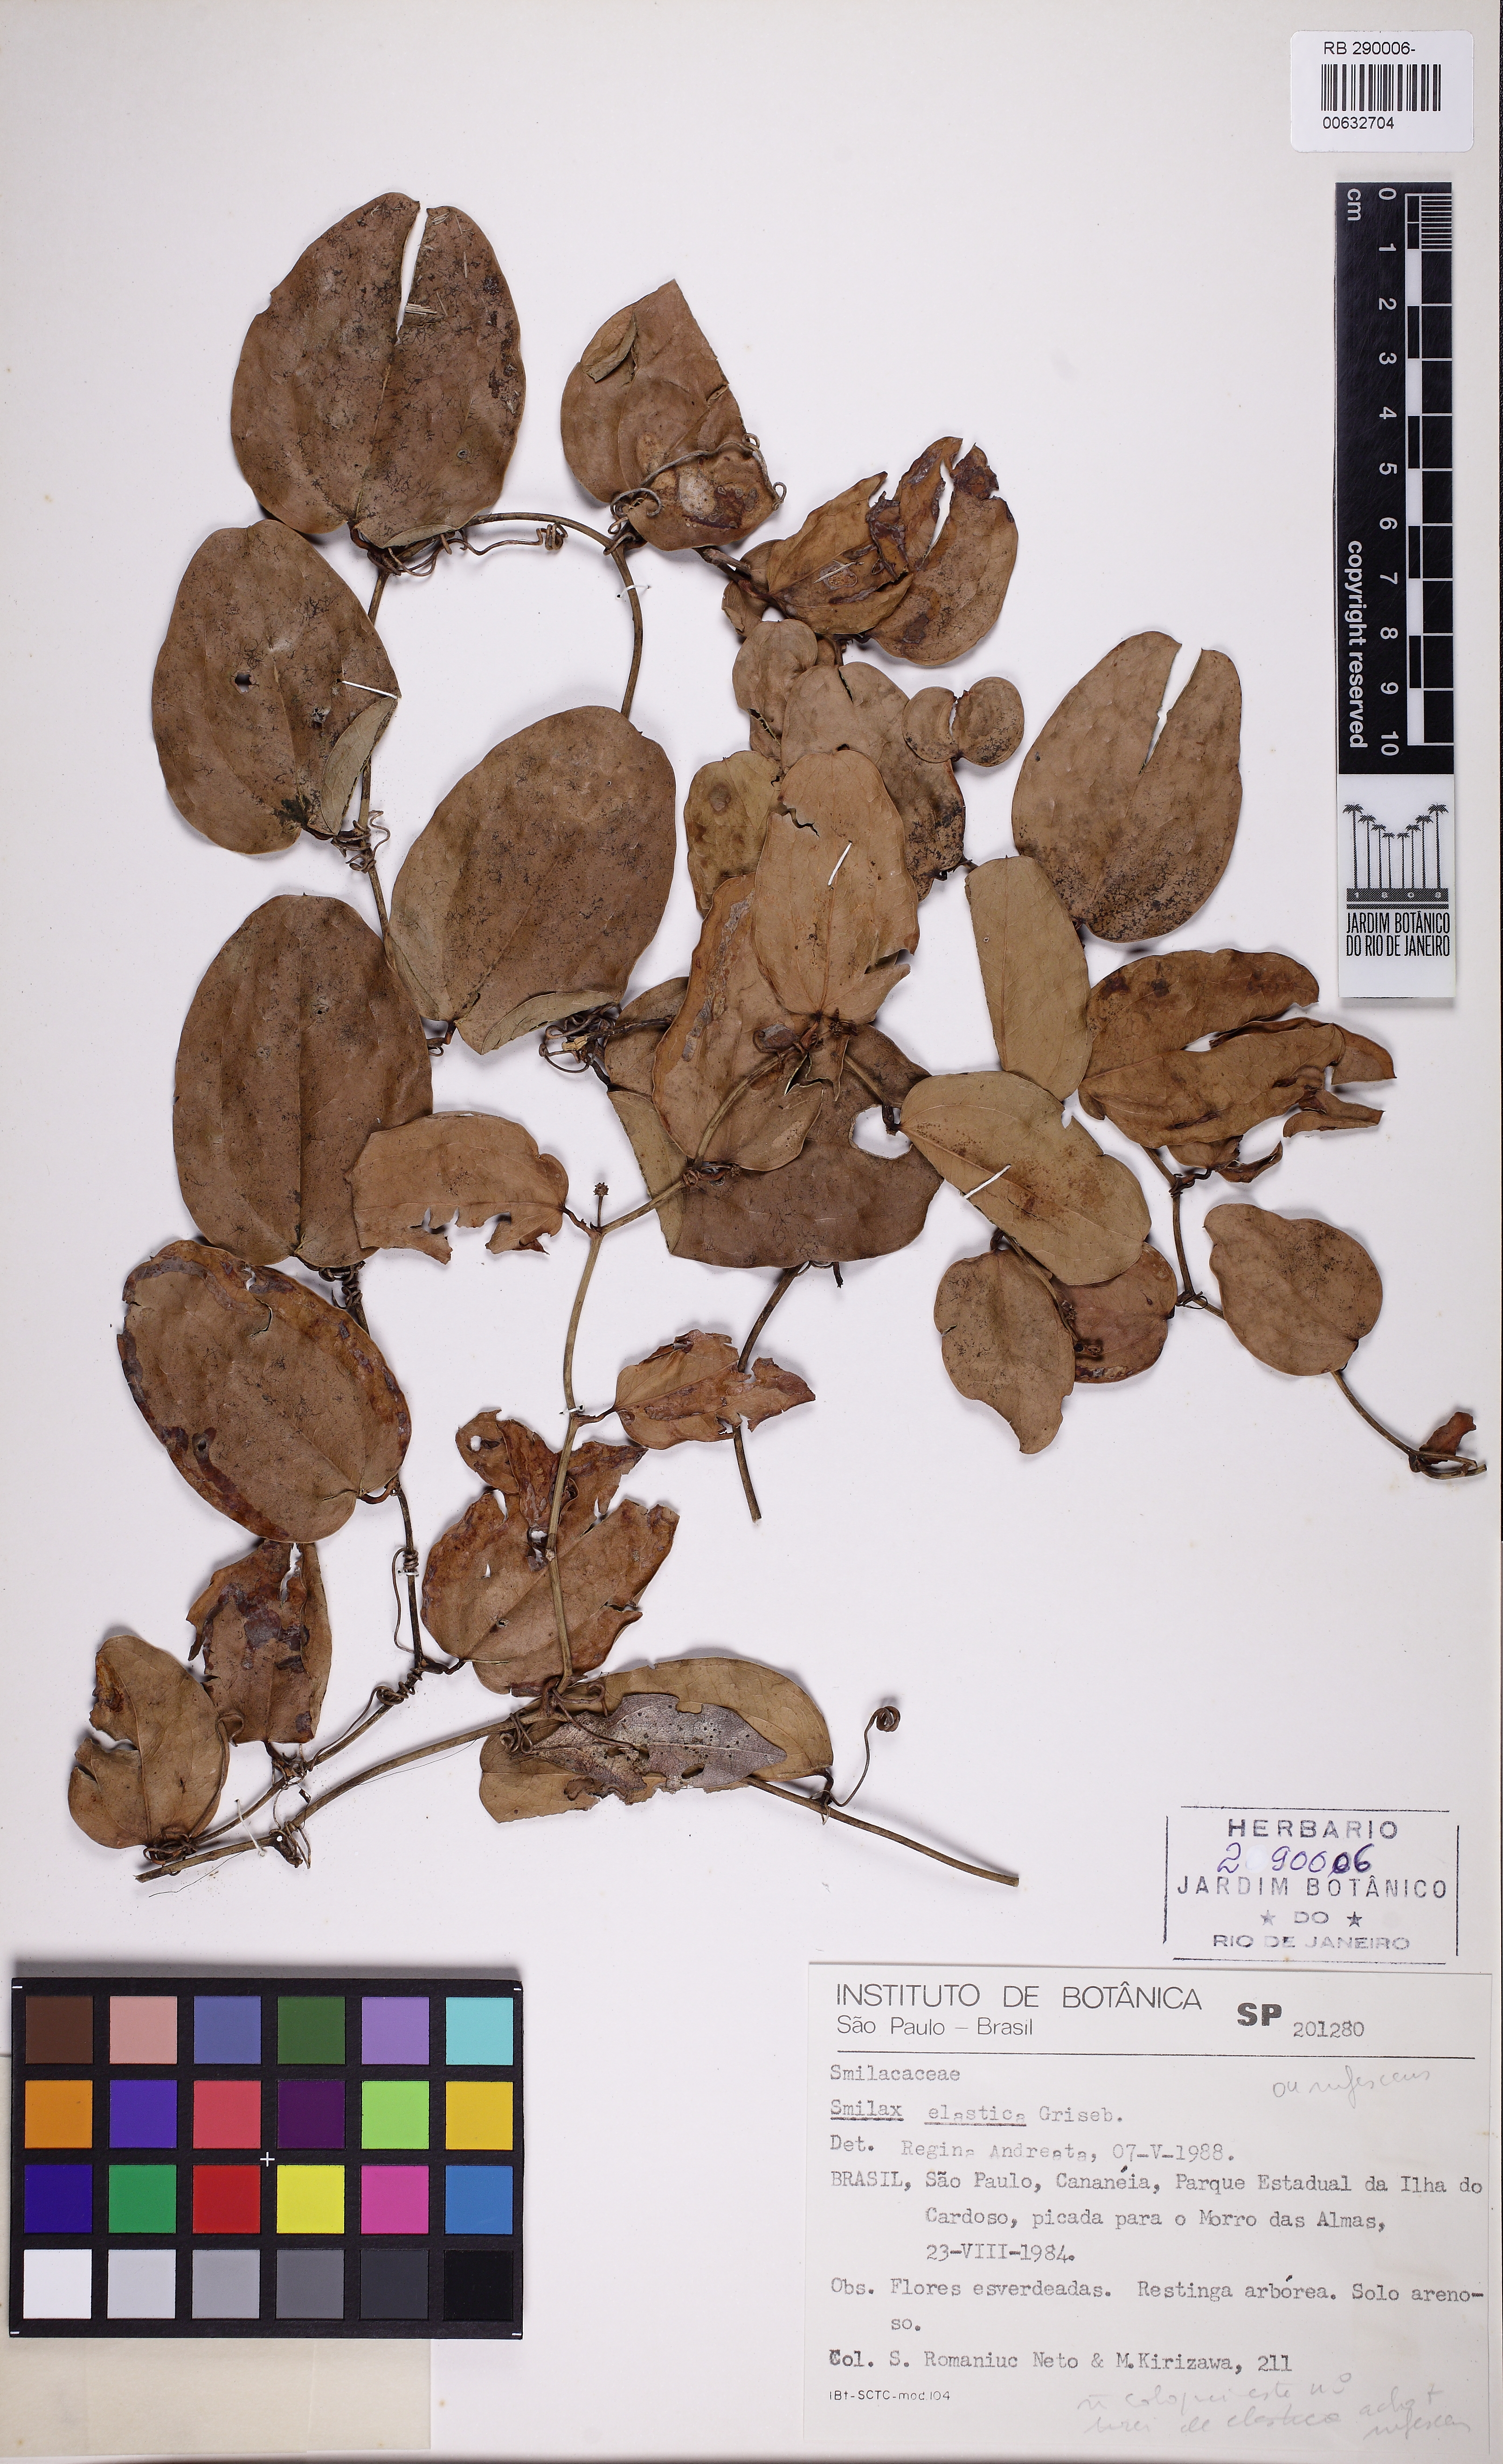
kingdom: Plantae
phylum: Tracheophyta
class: Liliopsida
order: Liliales
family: Smilacaceae
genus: Smilax
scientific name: Smilax elastica
